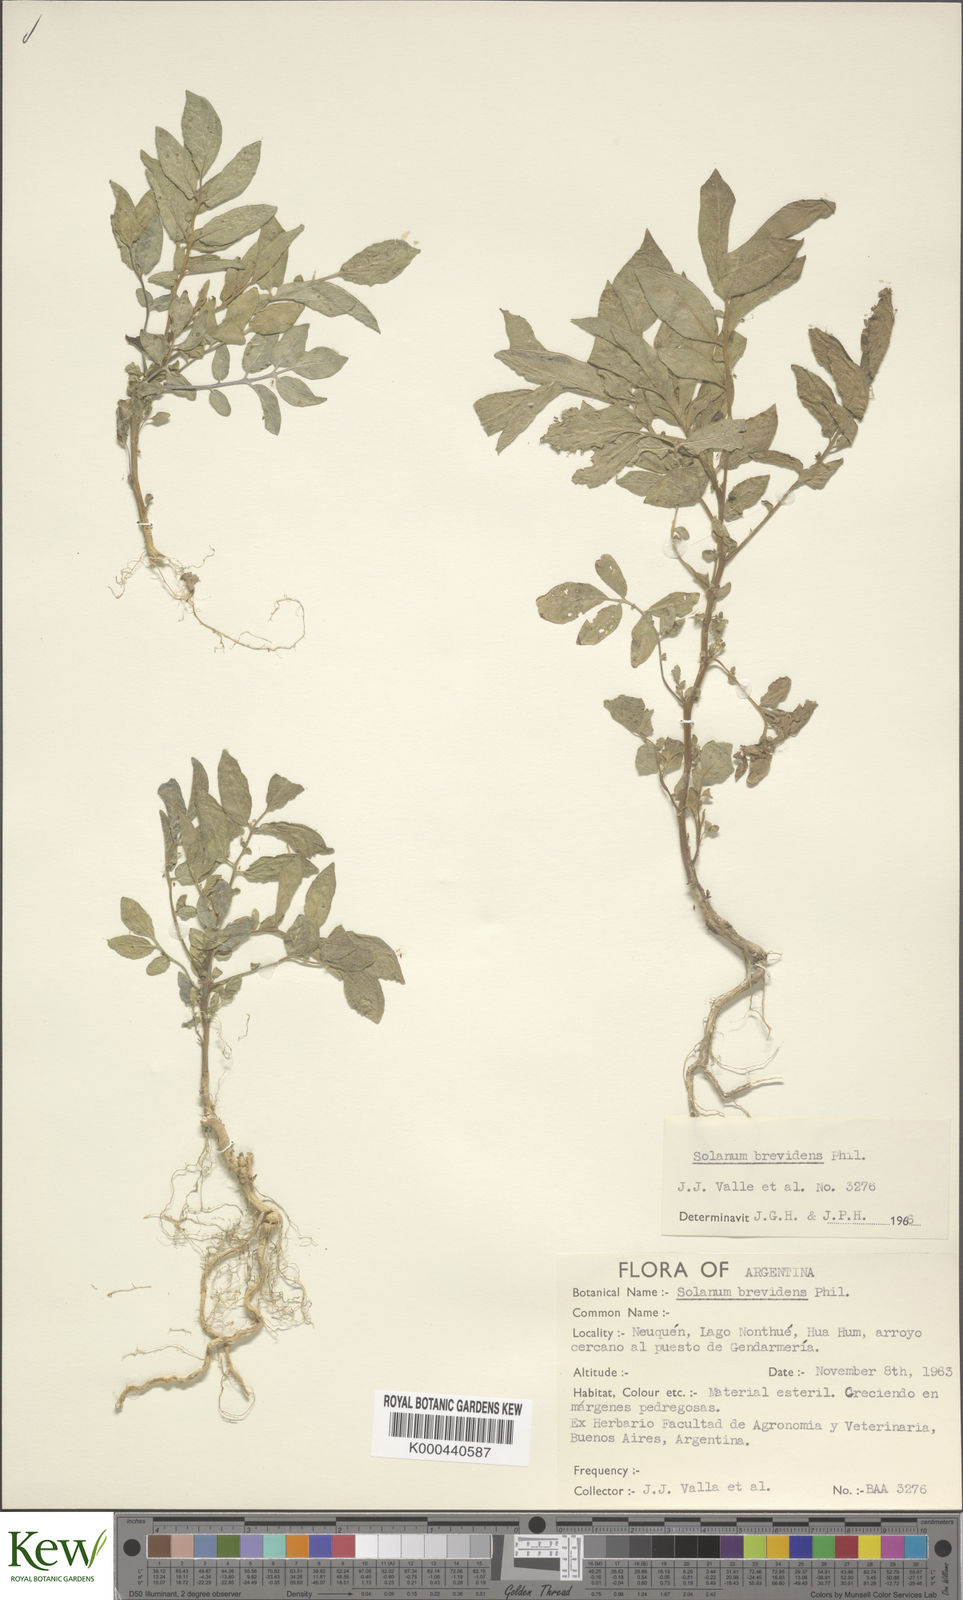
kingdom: Plantae
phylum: Tracheophyta
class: Magnoliopsida
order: Solanales
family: Solanaceae
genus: Solanum
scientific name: Solanum palustre
